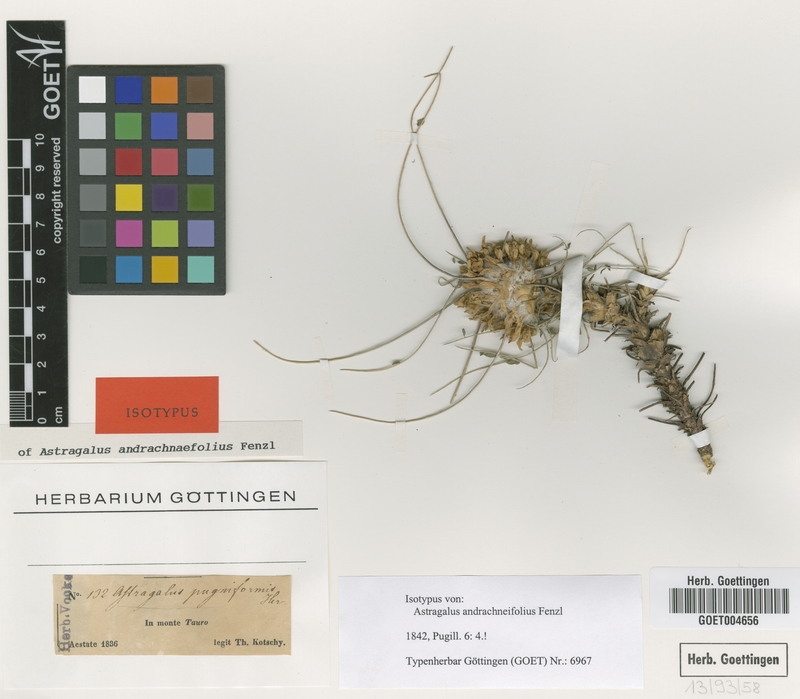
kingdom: Plantae
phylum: Tracheophyta
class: Magnoliopsida
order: Fabales
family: Fabaceae
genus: Astragalus
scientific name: Astragalus cephalotes
